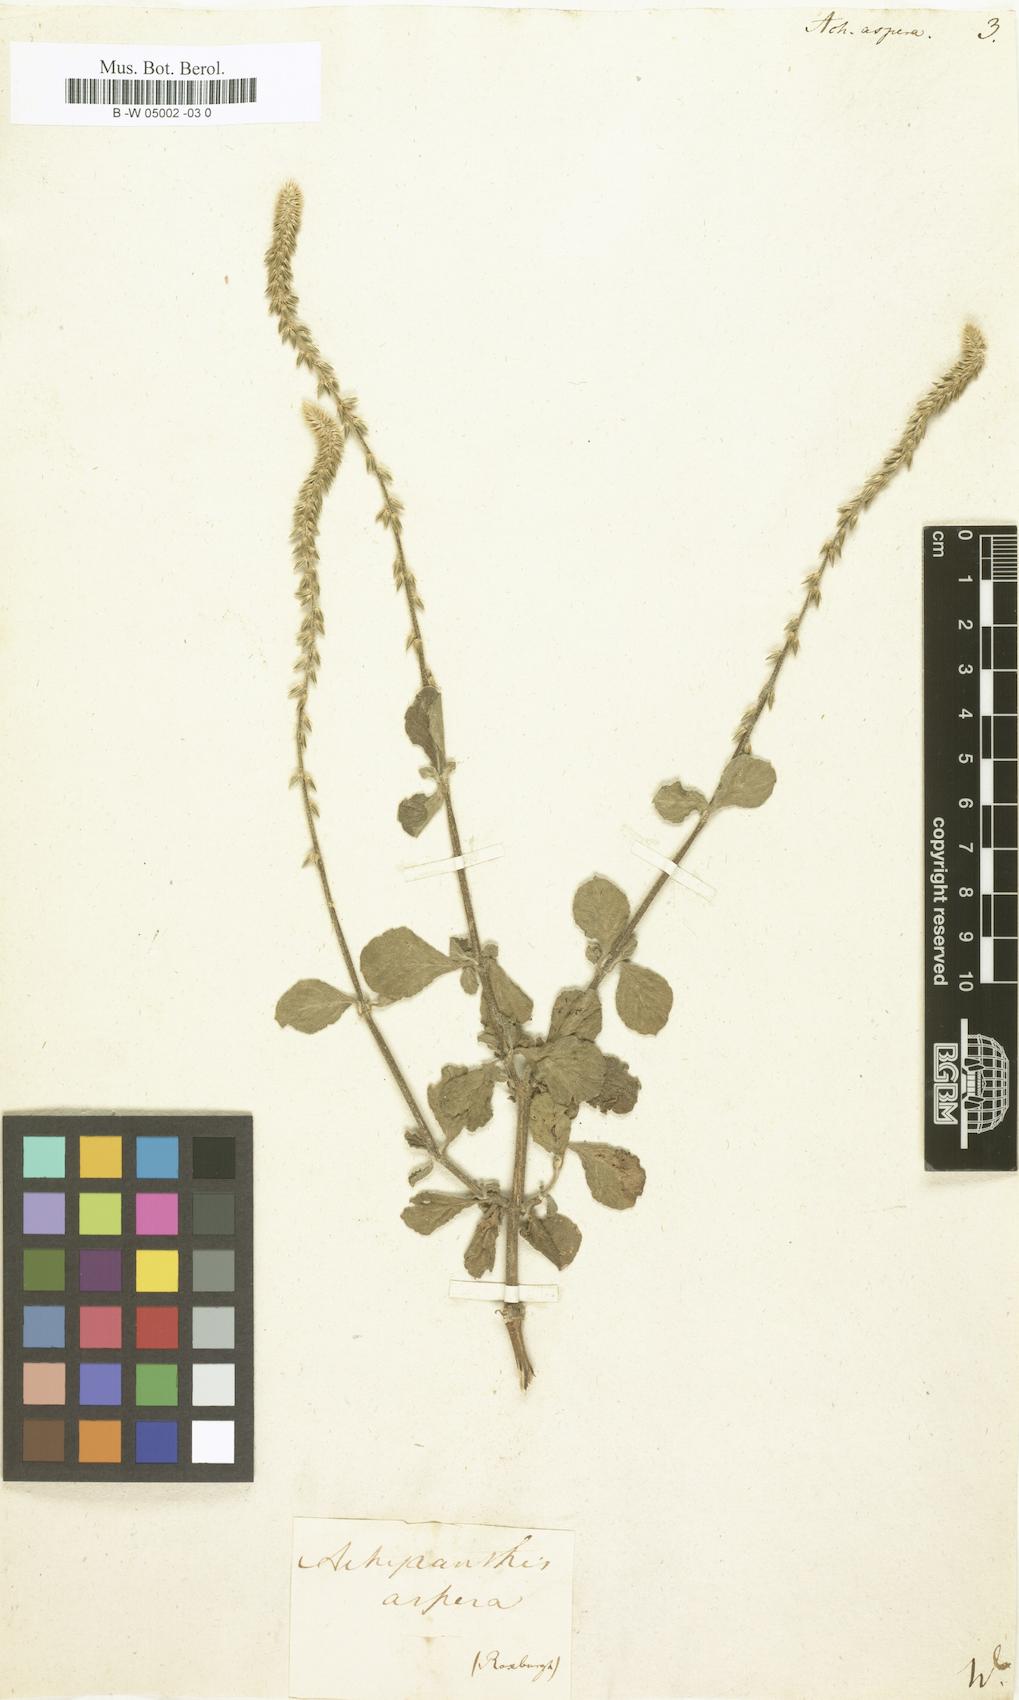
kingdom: Plantae
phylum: Tracheophyta
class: Magnoliopsida
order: Caryophyllales
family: Amaranthaceae
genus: Achyranthes
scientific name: Achyranthes aspera
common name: Devil's horsewhip
